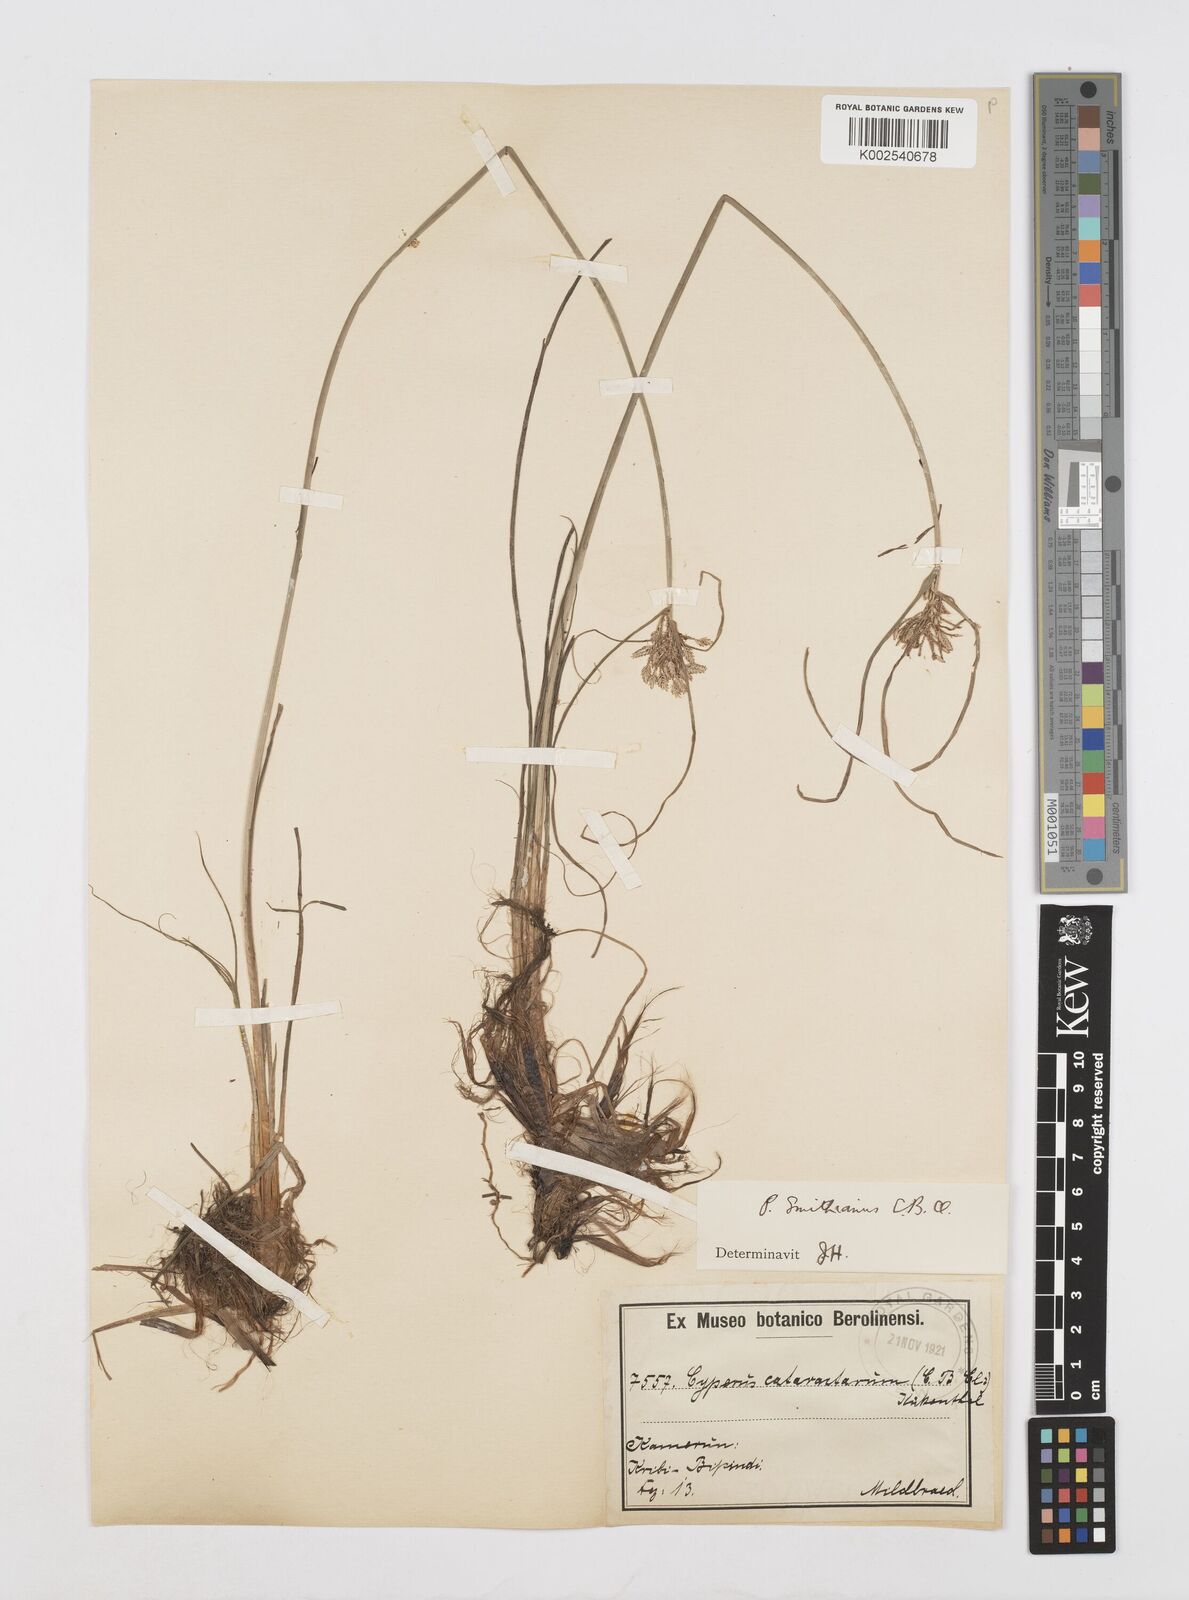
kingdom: Plantae
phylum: Tracheophyta
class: Liliopsida
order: Poales
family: Cyperaceae
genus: Cyperus
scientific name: Cyperus cataractarum
